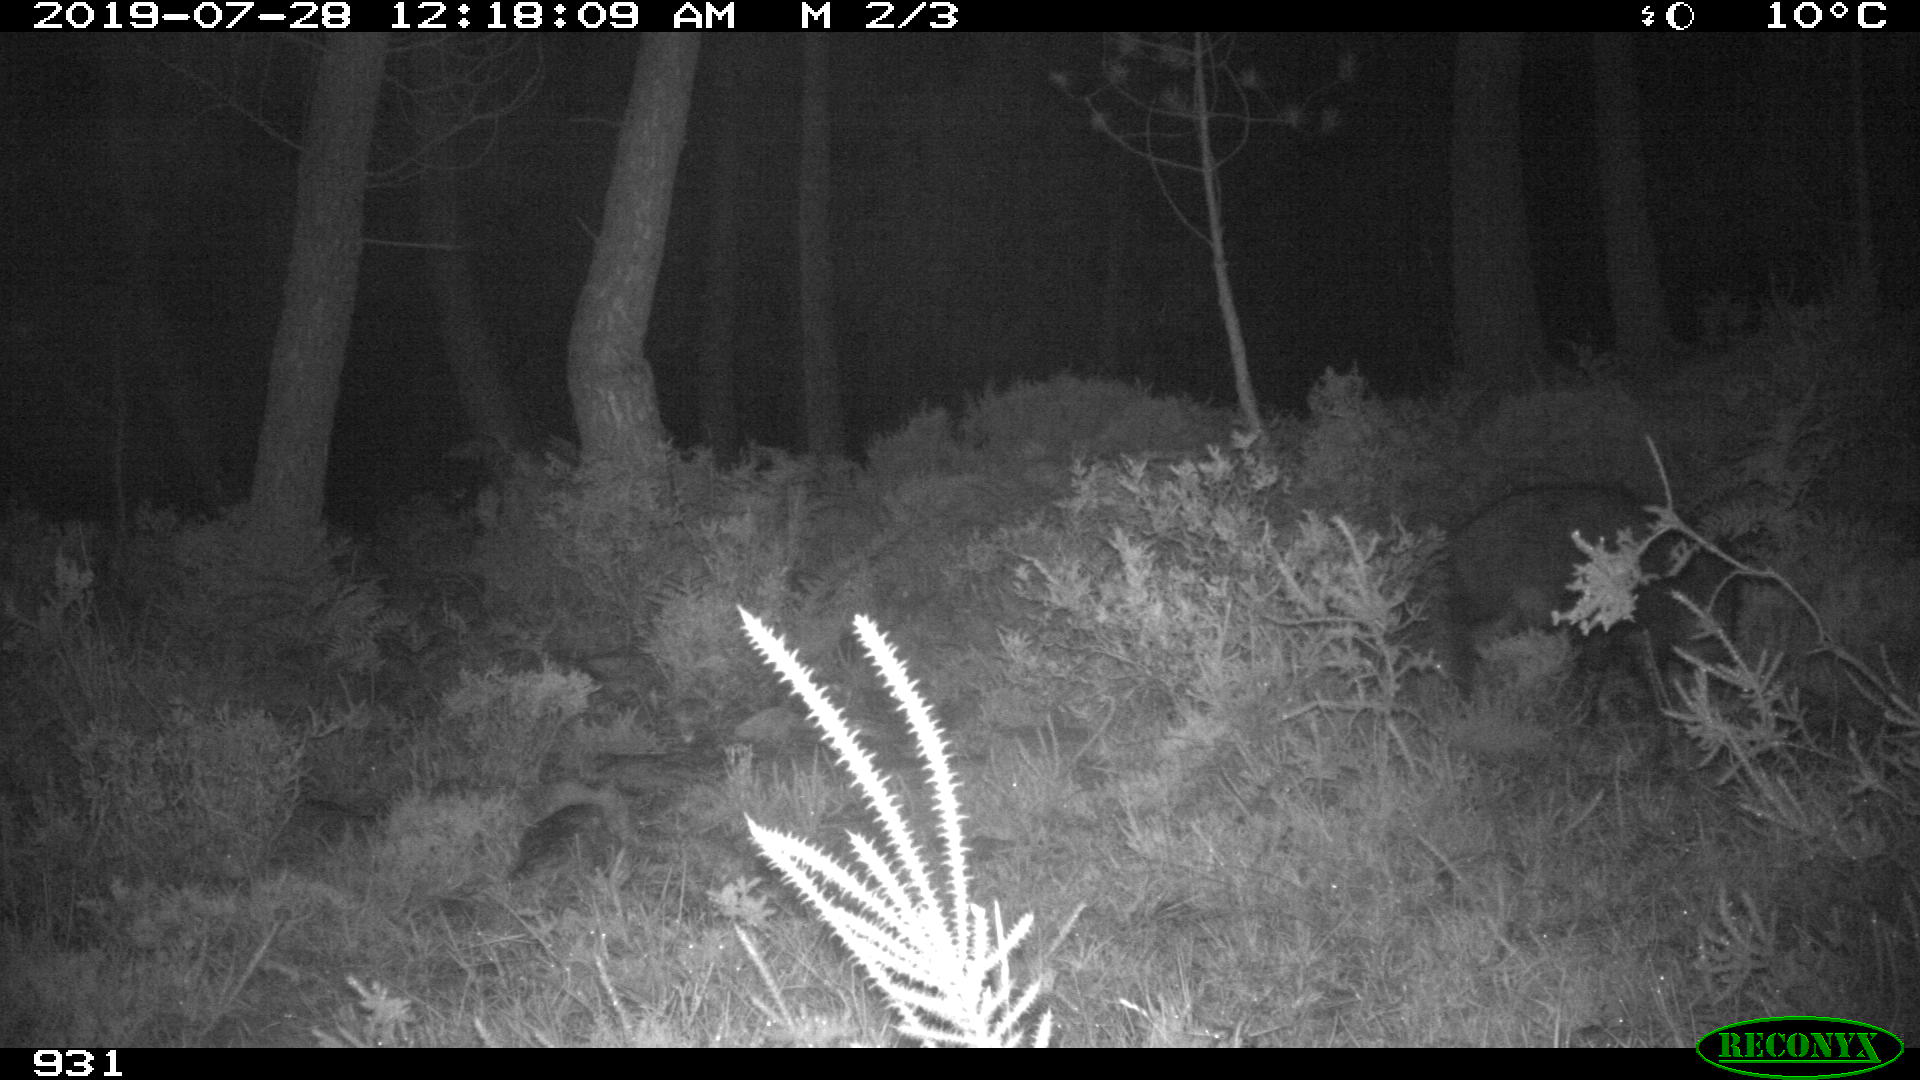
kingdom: Animalia
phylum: Chordata
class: Mammalia
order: Artiodactyla
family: Suidae
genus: Sus
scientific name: Sus scrofa
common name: Wild boar
